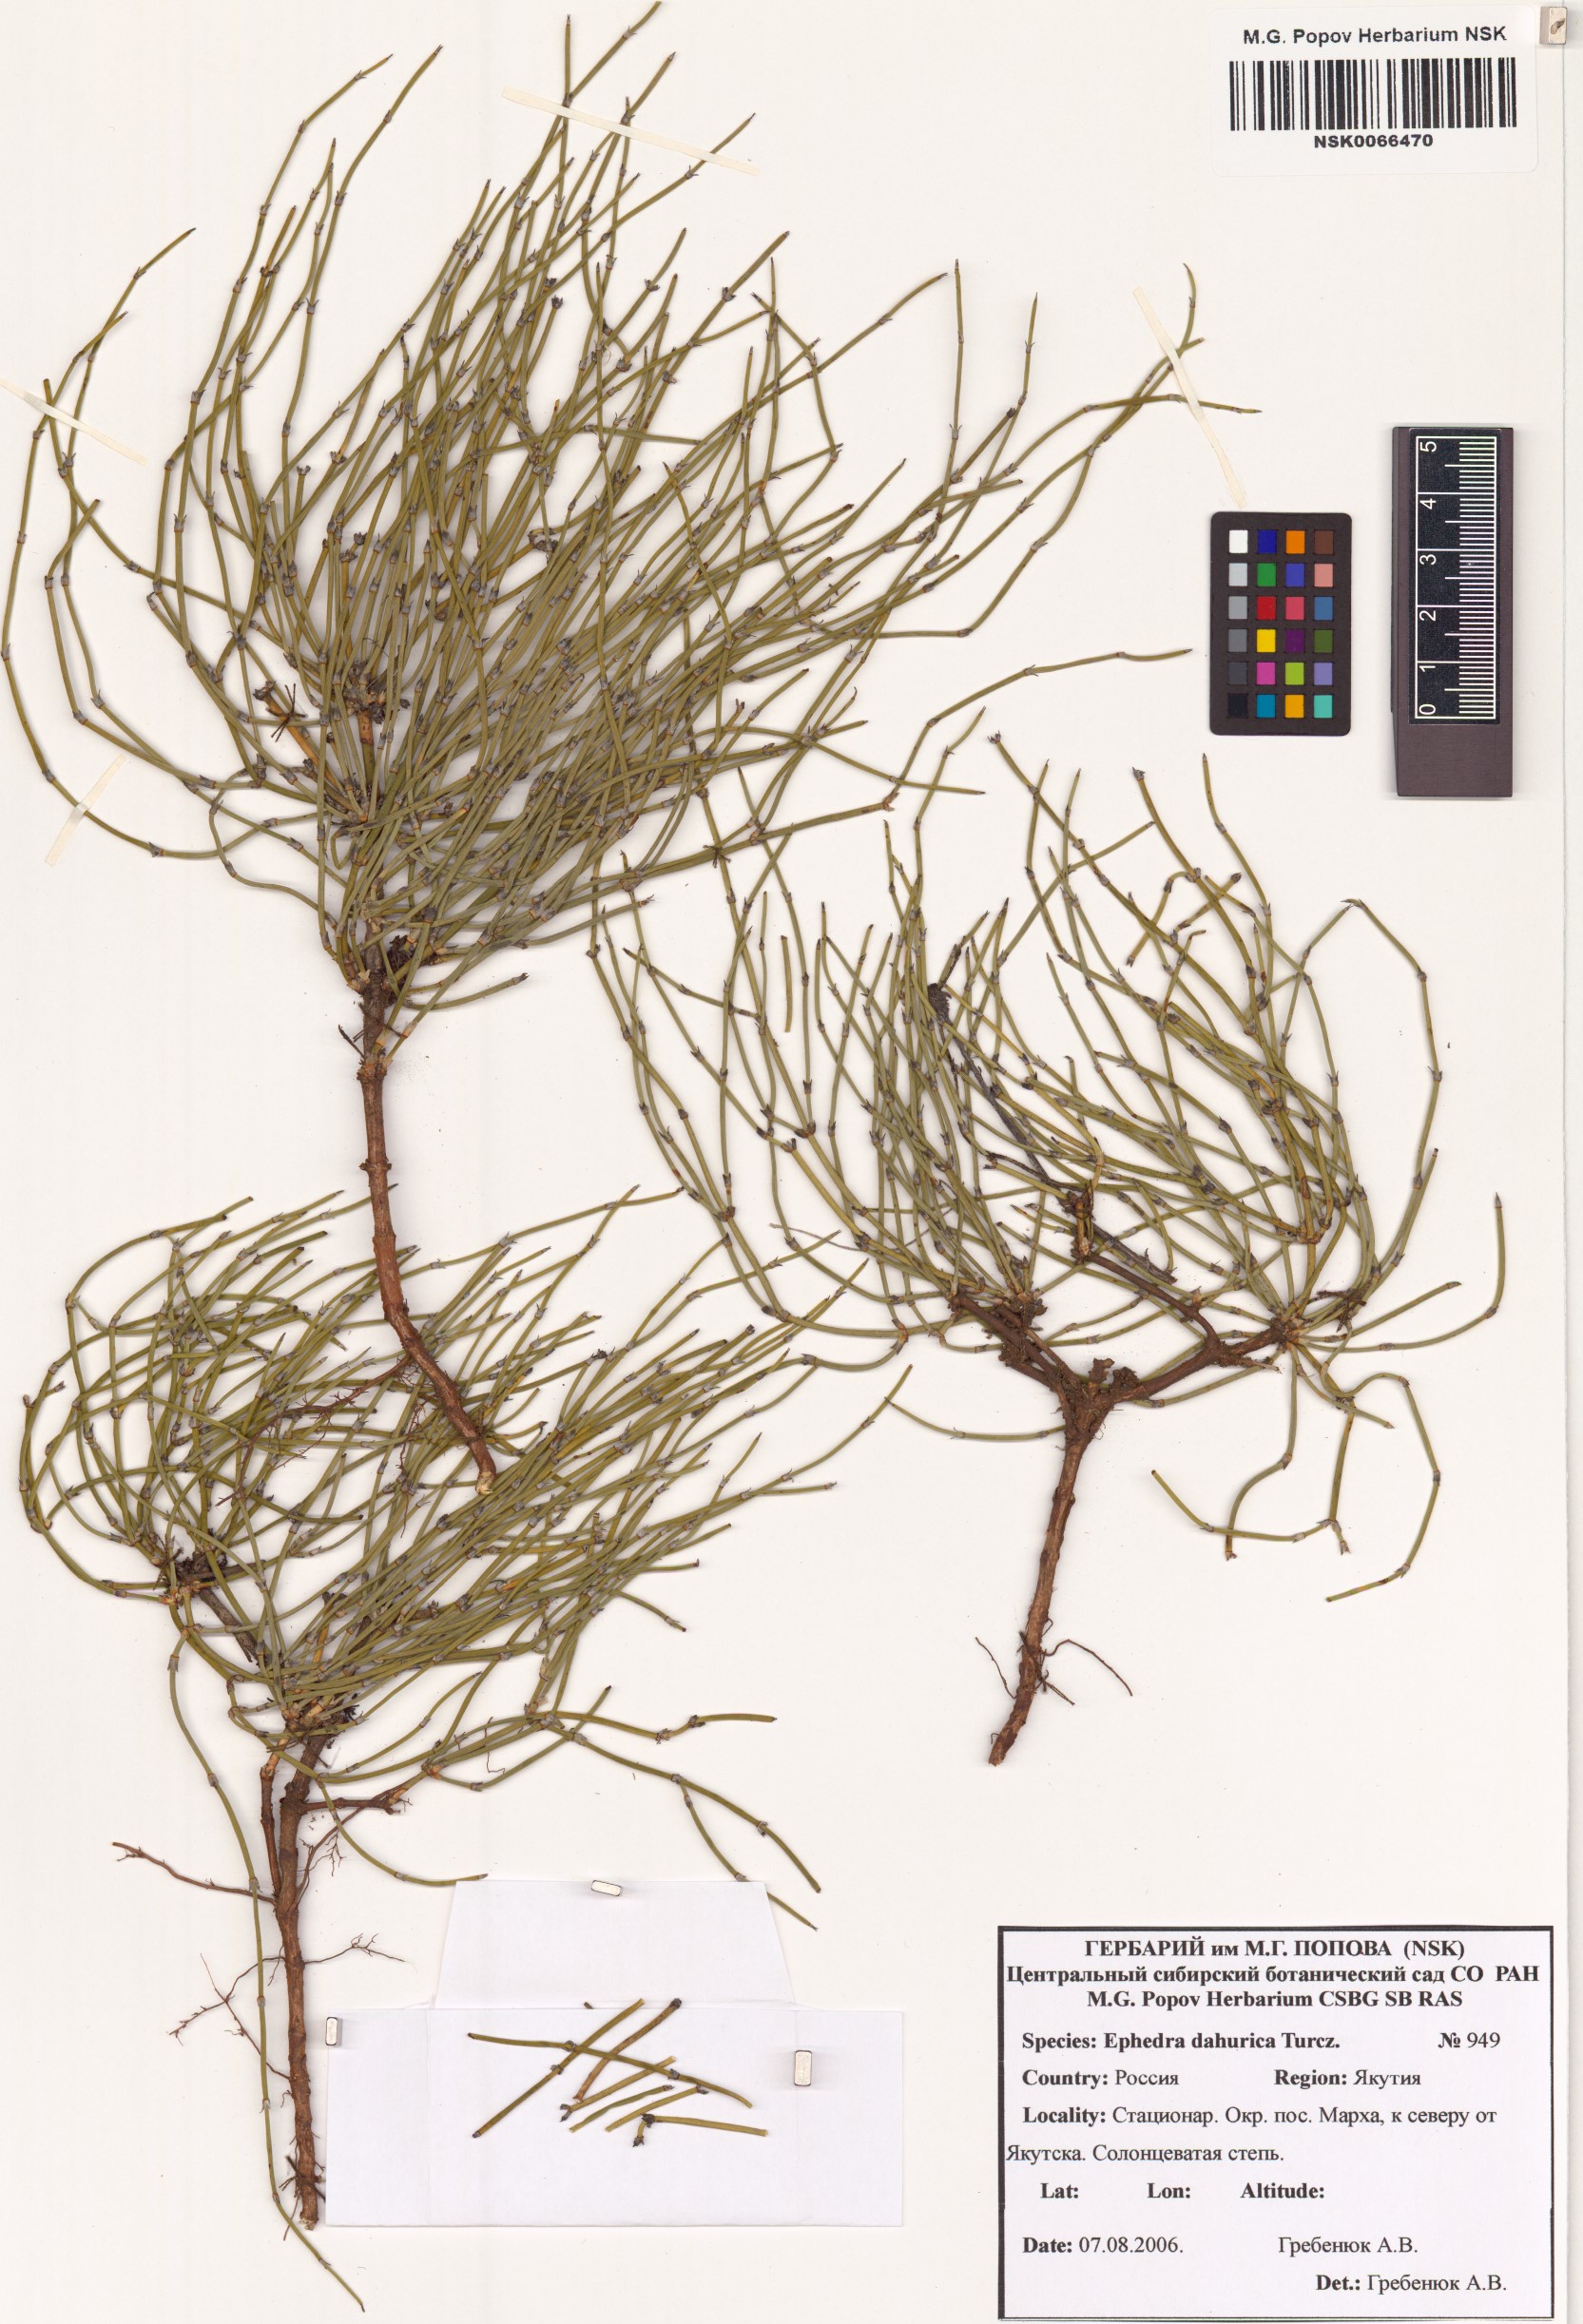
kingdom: Plantae
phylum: Tracheophyta
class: Gnetopsida
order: Ephedrales
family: Ephedraceae
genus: Ephedra
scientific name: Ephedra dahurica
